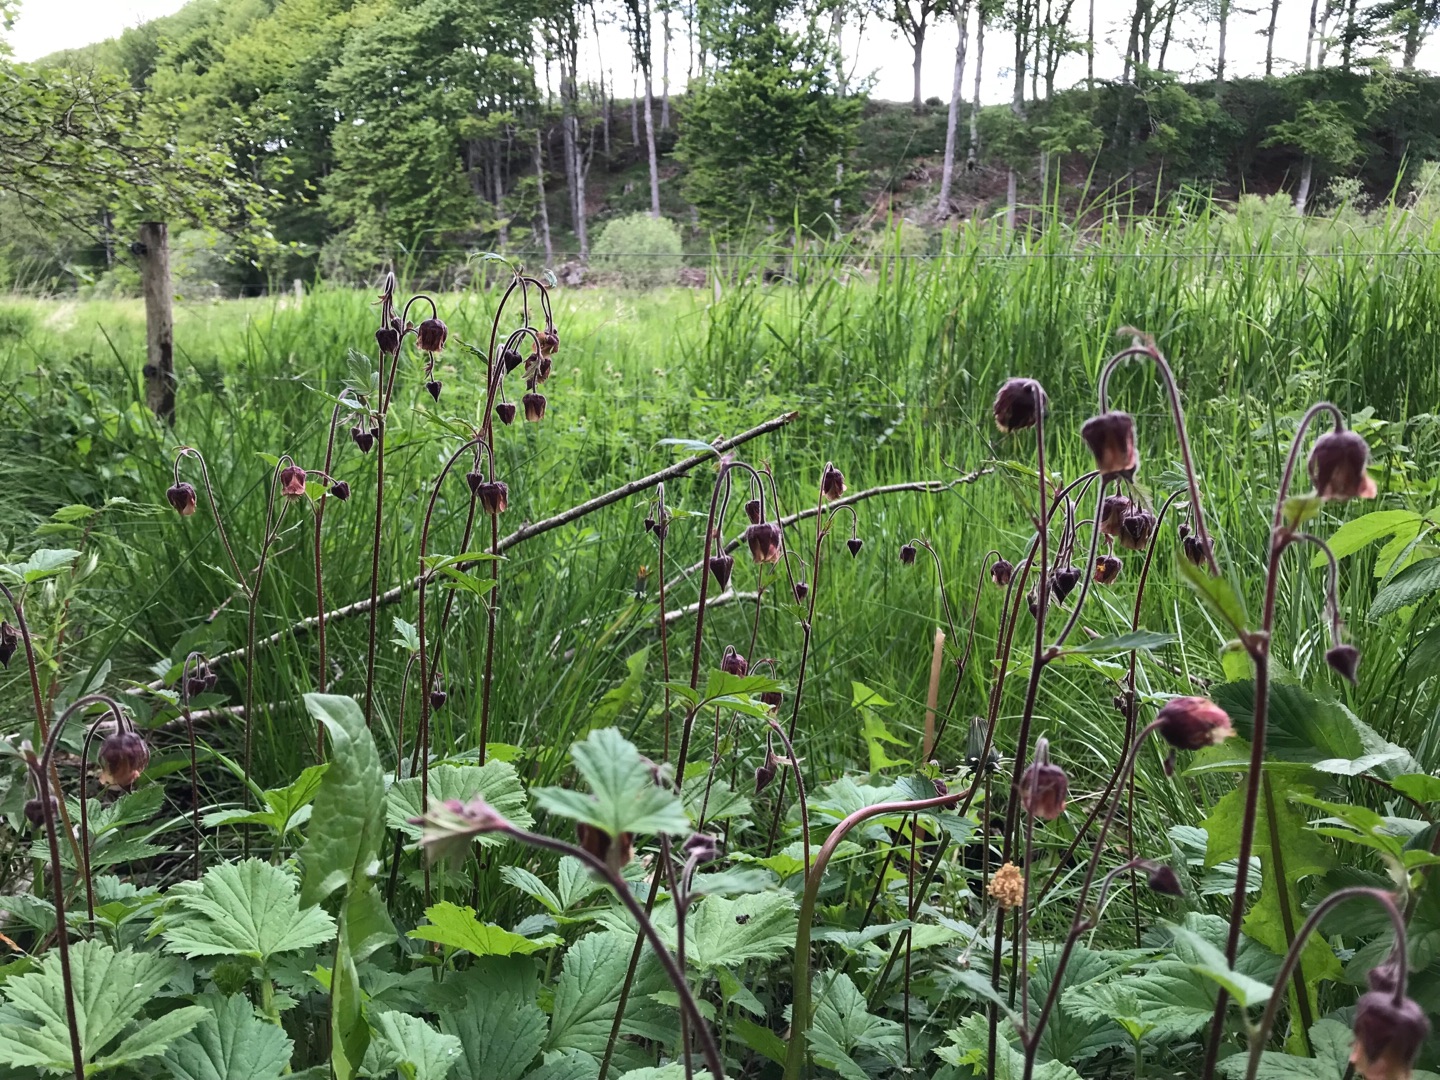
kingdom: Plantae
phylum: Tracheophyta
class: Magnoliopsida
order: Rosales
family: Rosaceae
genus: Geum
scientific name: Geum rivale
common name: Eng-nellikerod
